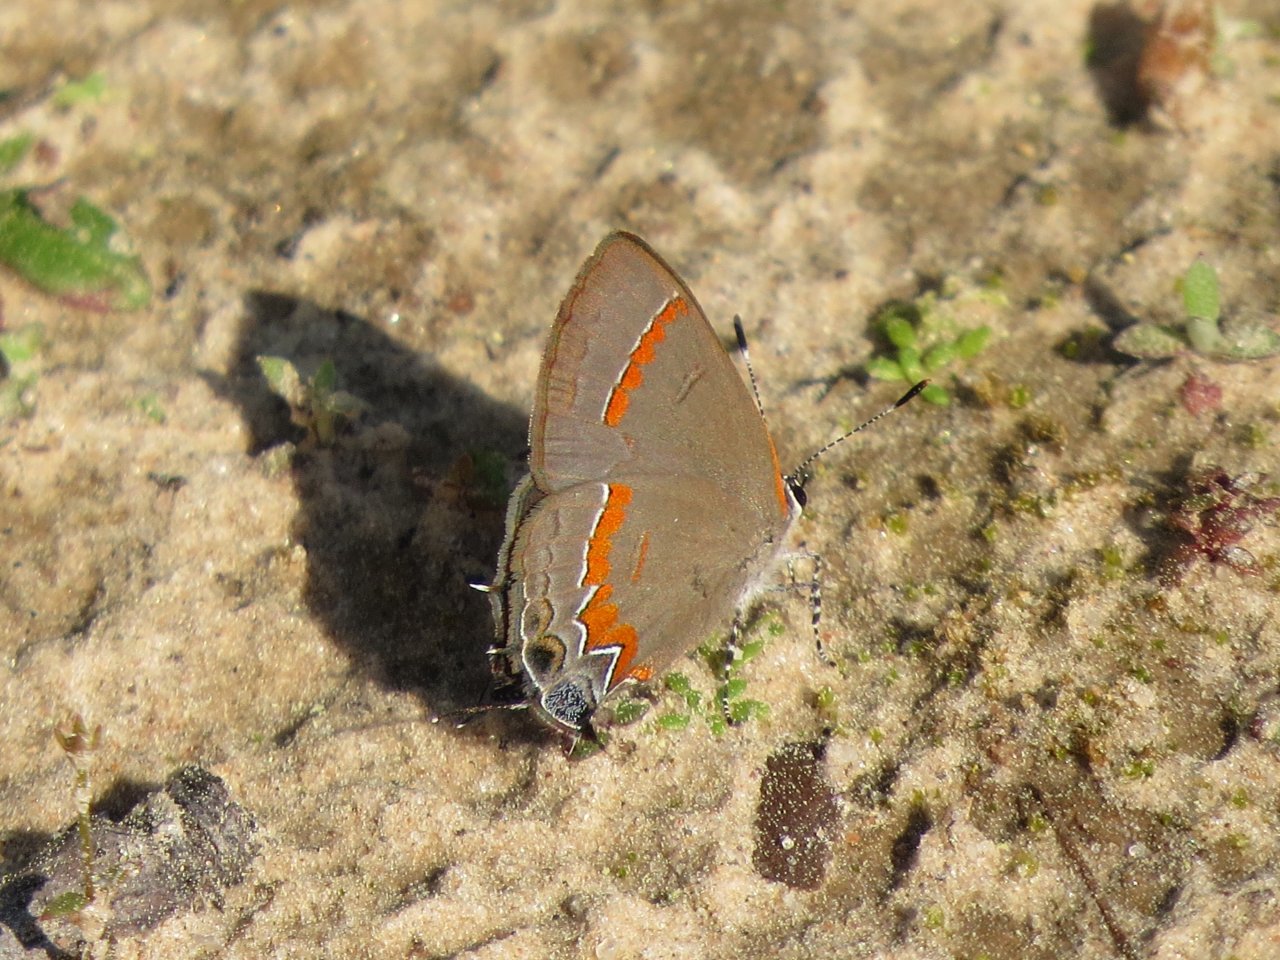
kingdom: Animalia
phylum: Arthropoda
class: Insecta
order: Lepidoptera
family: Lycaenidae
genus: Calycopis
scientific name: Calycopis cecrops
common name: Red-banded Hairstreak
